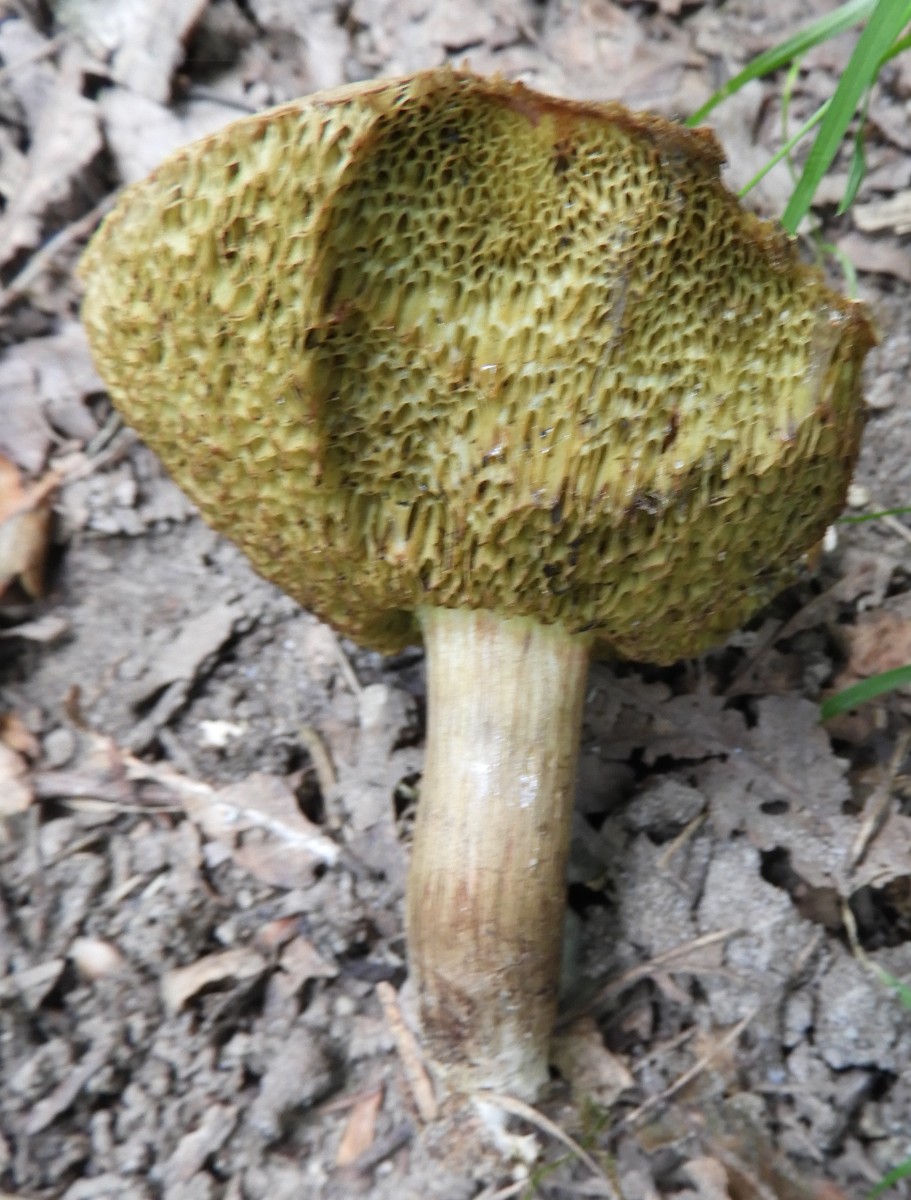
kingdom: Fungi
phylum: Basidiomycota
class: Agaricomycetes
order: Boletales
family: Boletaceae
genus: Xerocomellus
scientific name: Xerocomellus porosporus
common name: hvidsprukken rørhat
